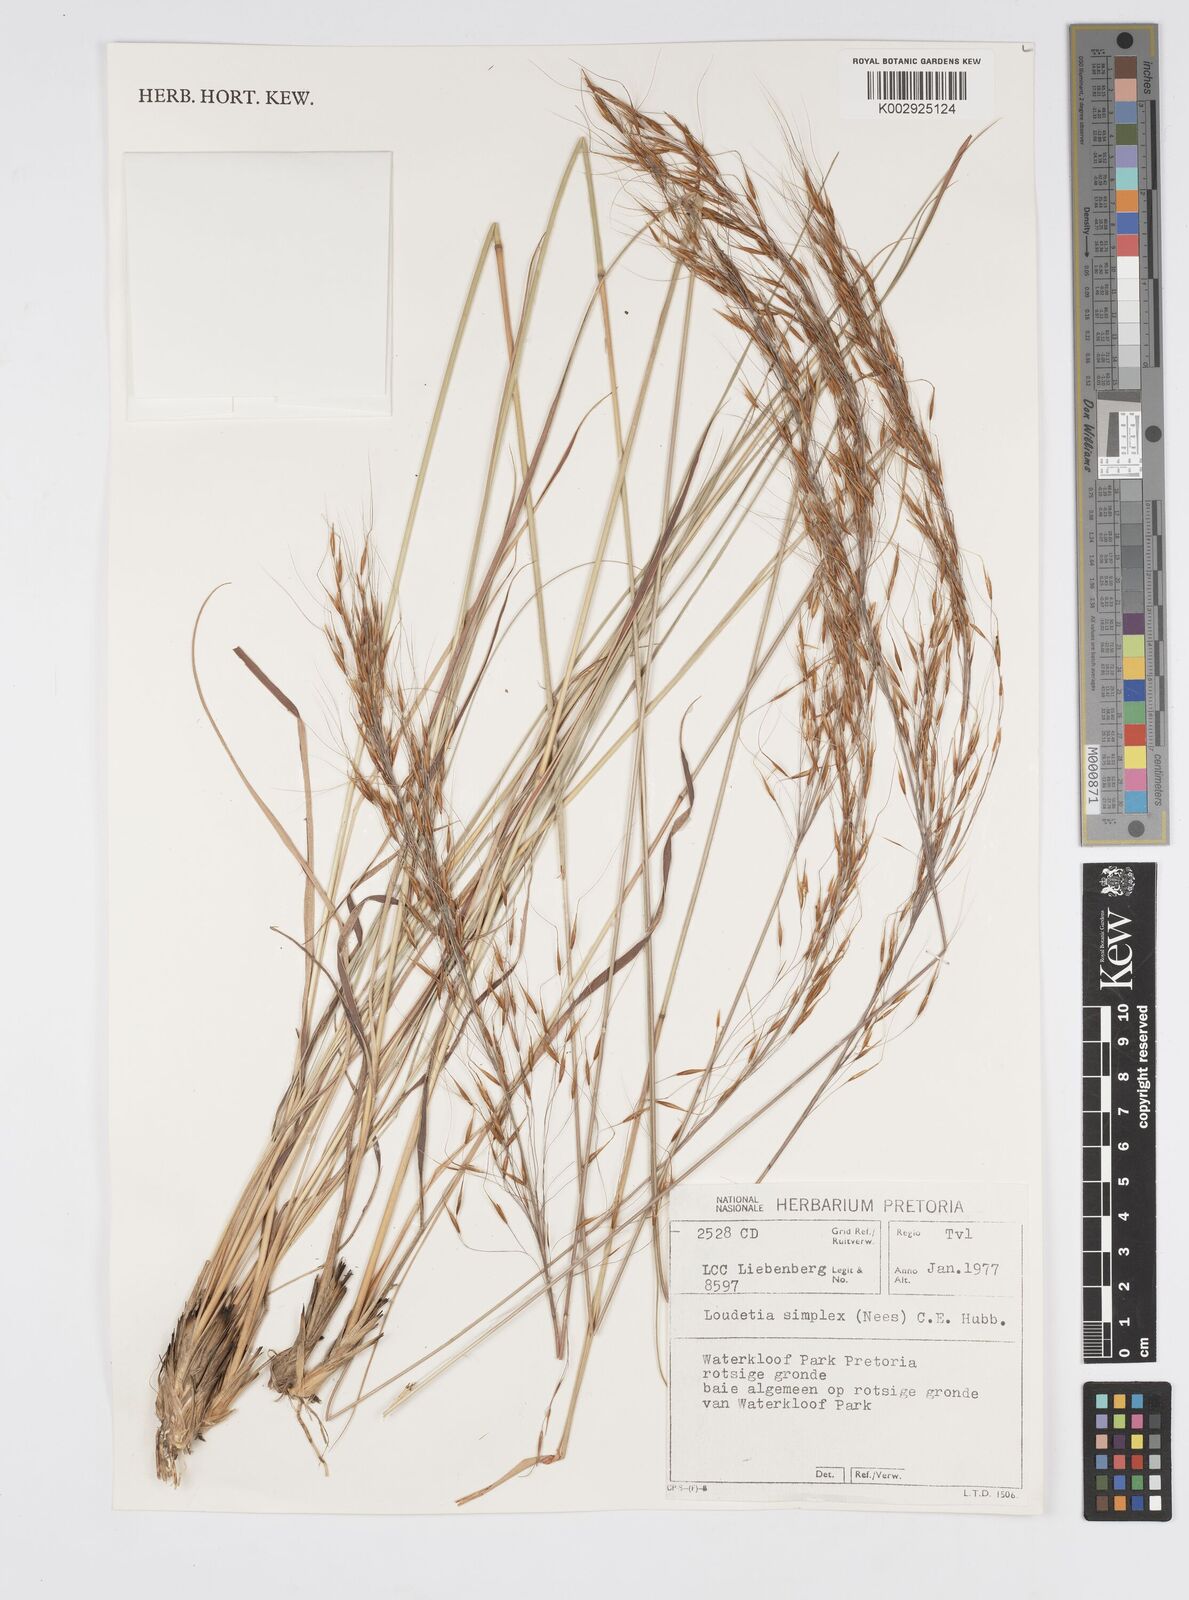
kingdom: Plantae
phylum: Tracheophyta
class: Liliopsida
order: Poales
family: Poaceae
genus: Loudetia
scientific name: Loudetia simplex
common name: Common russet grass
